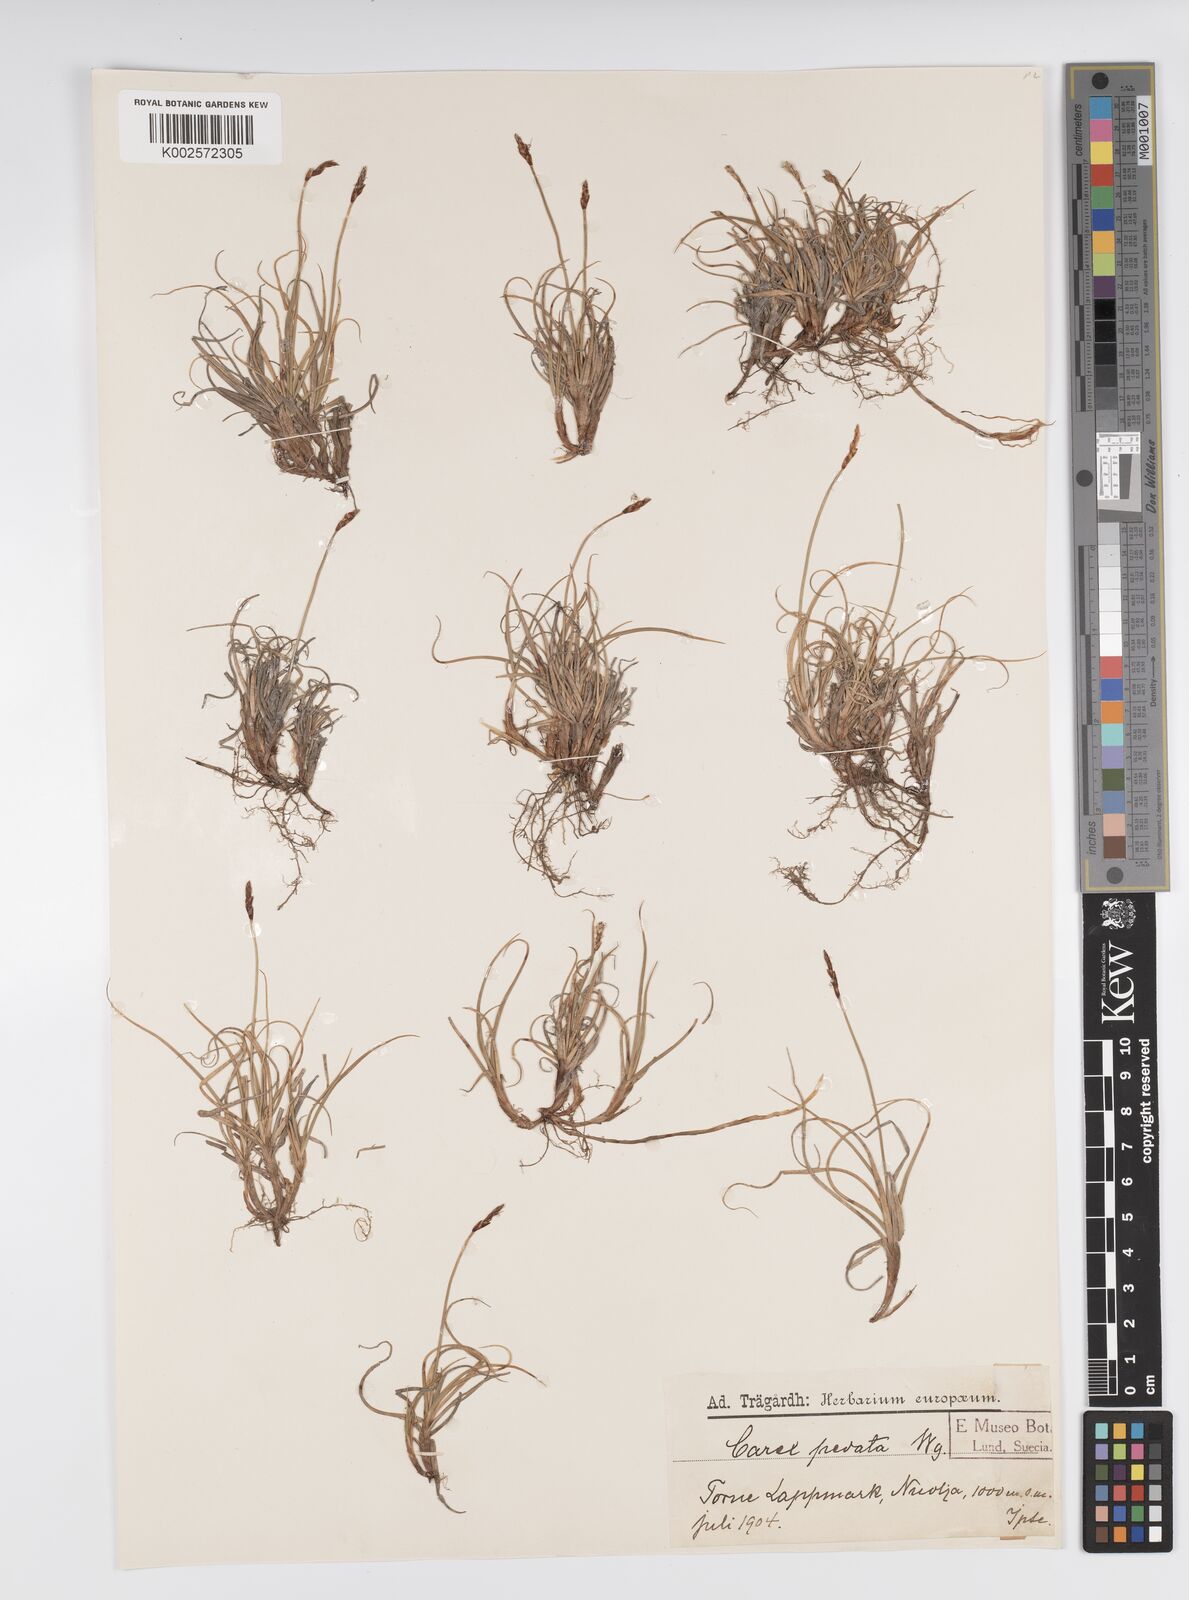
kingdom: Plantae
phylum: Tracheophyta
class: Liliopsida
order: Poales
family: Cyperaceae
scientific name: Cyperaceae
